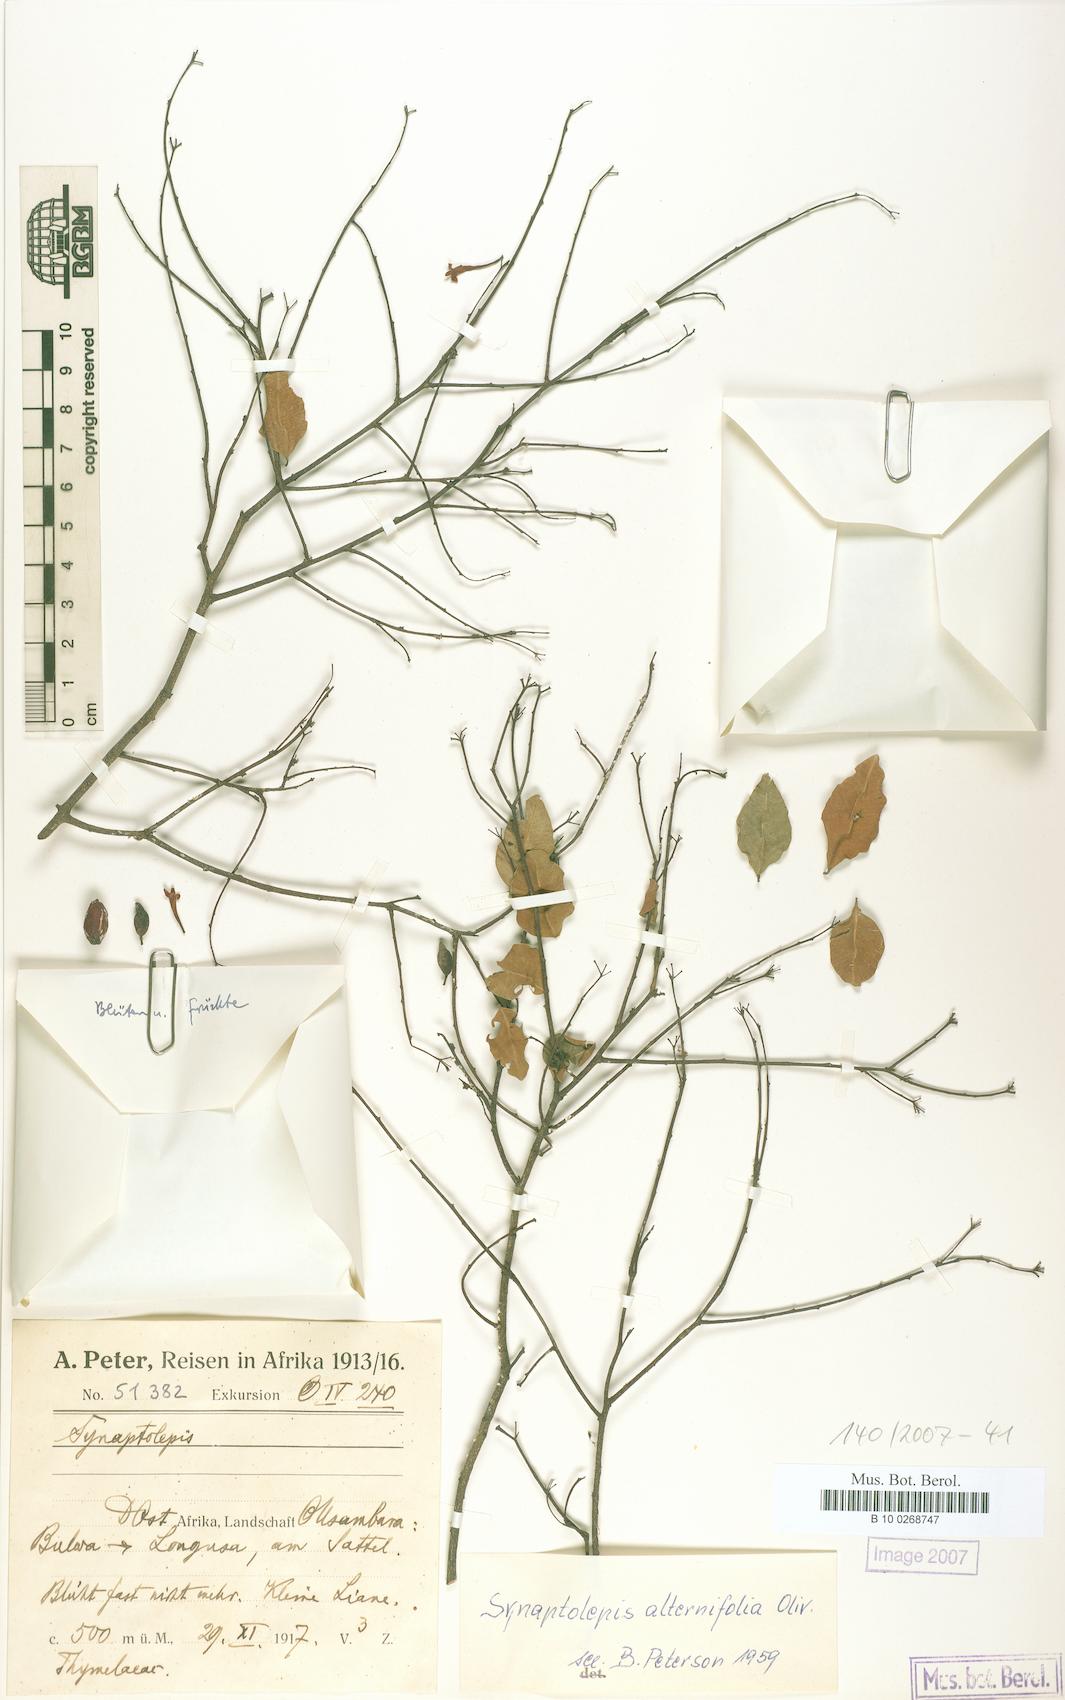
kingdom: Plantae
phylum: Tracheophyta
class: Magnoliopsida
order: Malvales
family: Thymelaeaceae
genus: Synaptolepis
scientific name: Synaptolepis alternifolia
